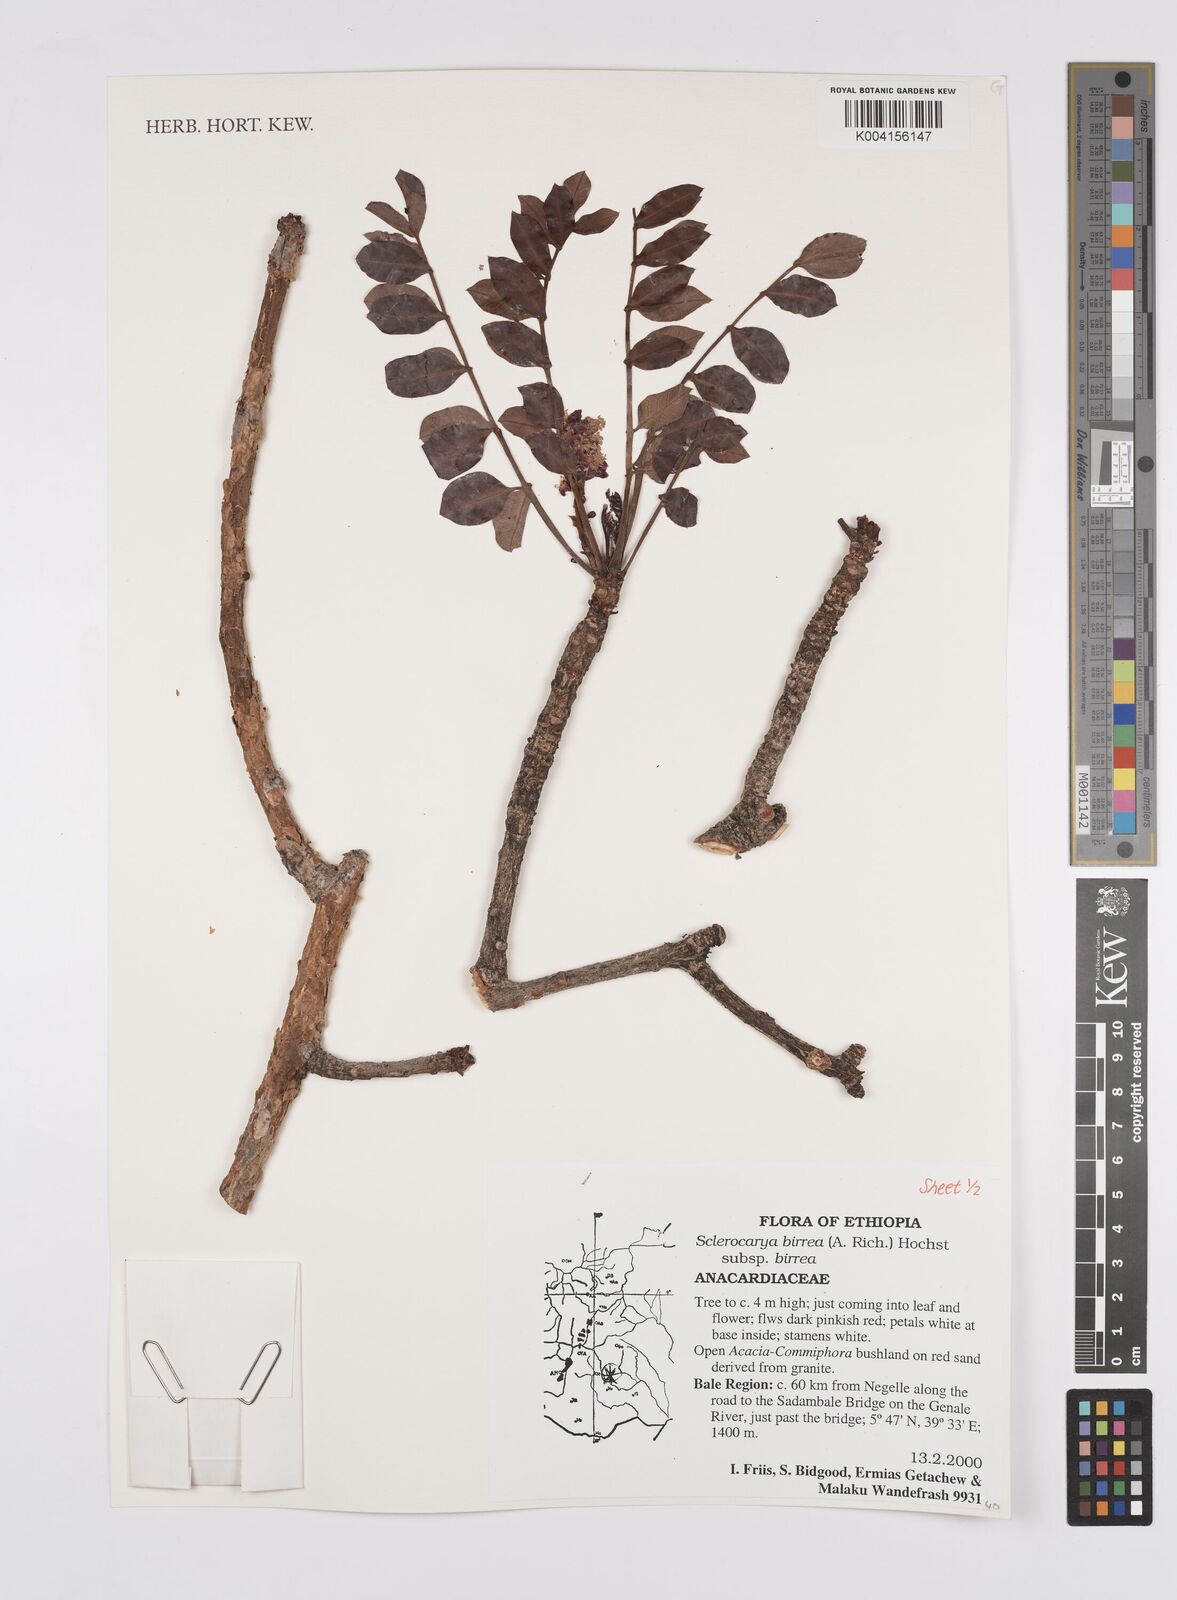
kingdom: Plantae
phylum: Tracheophyta
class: Magnoliopsida
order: Sapindales
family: Anacardiaceae
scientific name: Anacardiaceae
